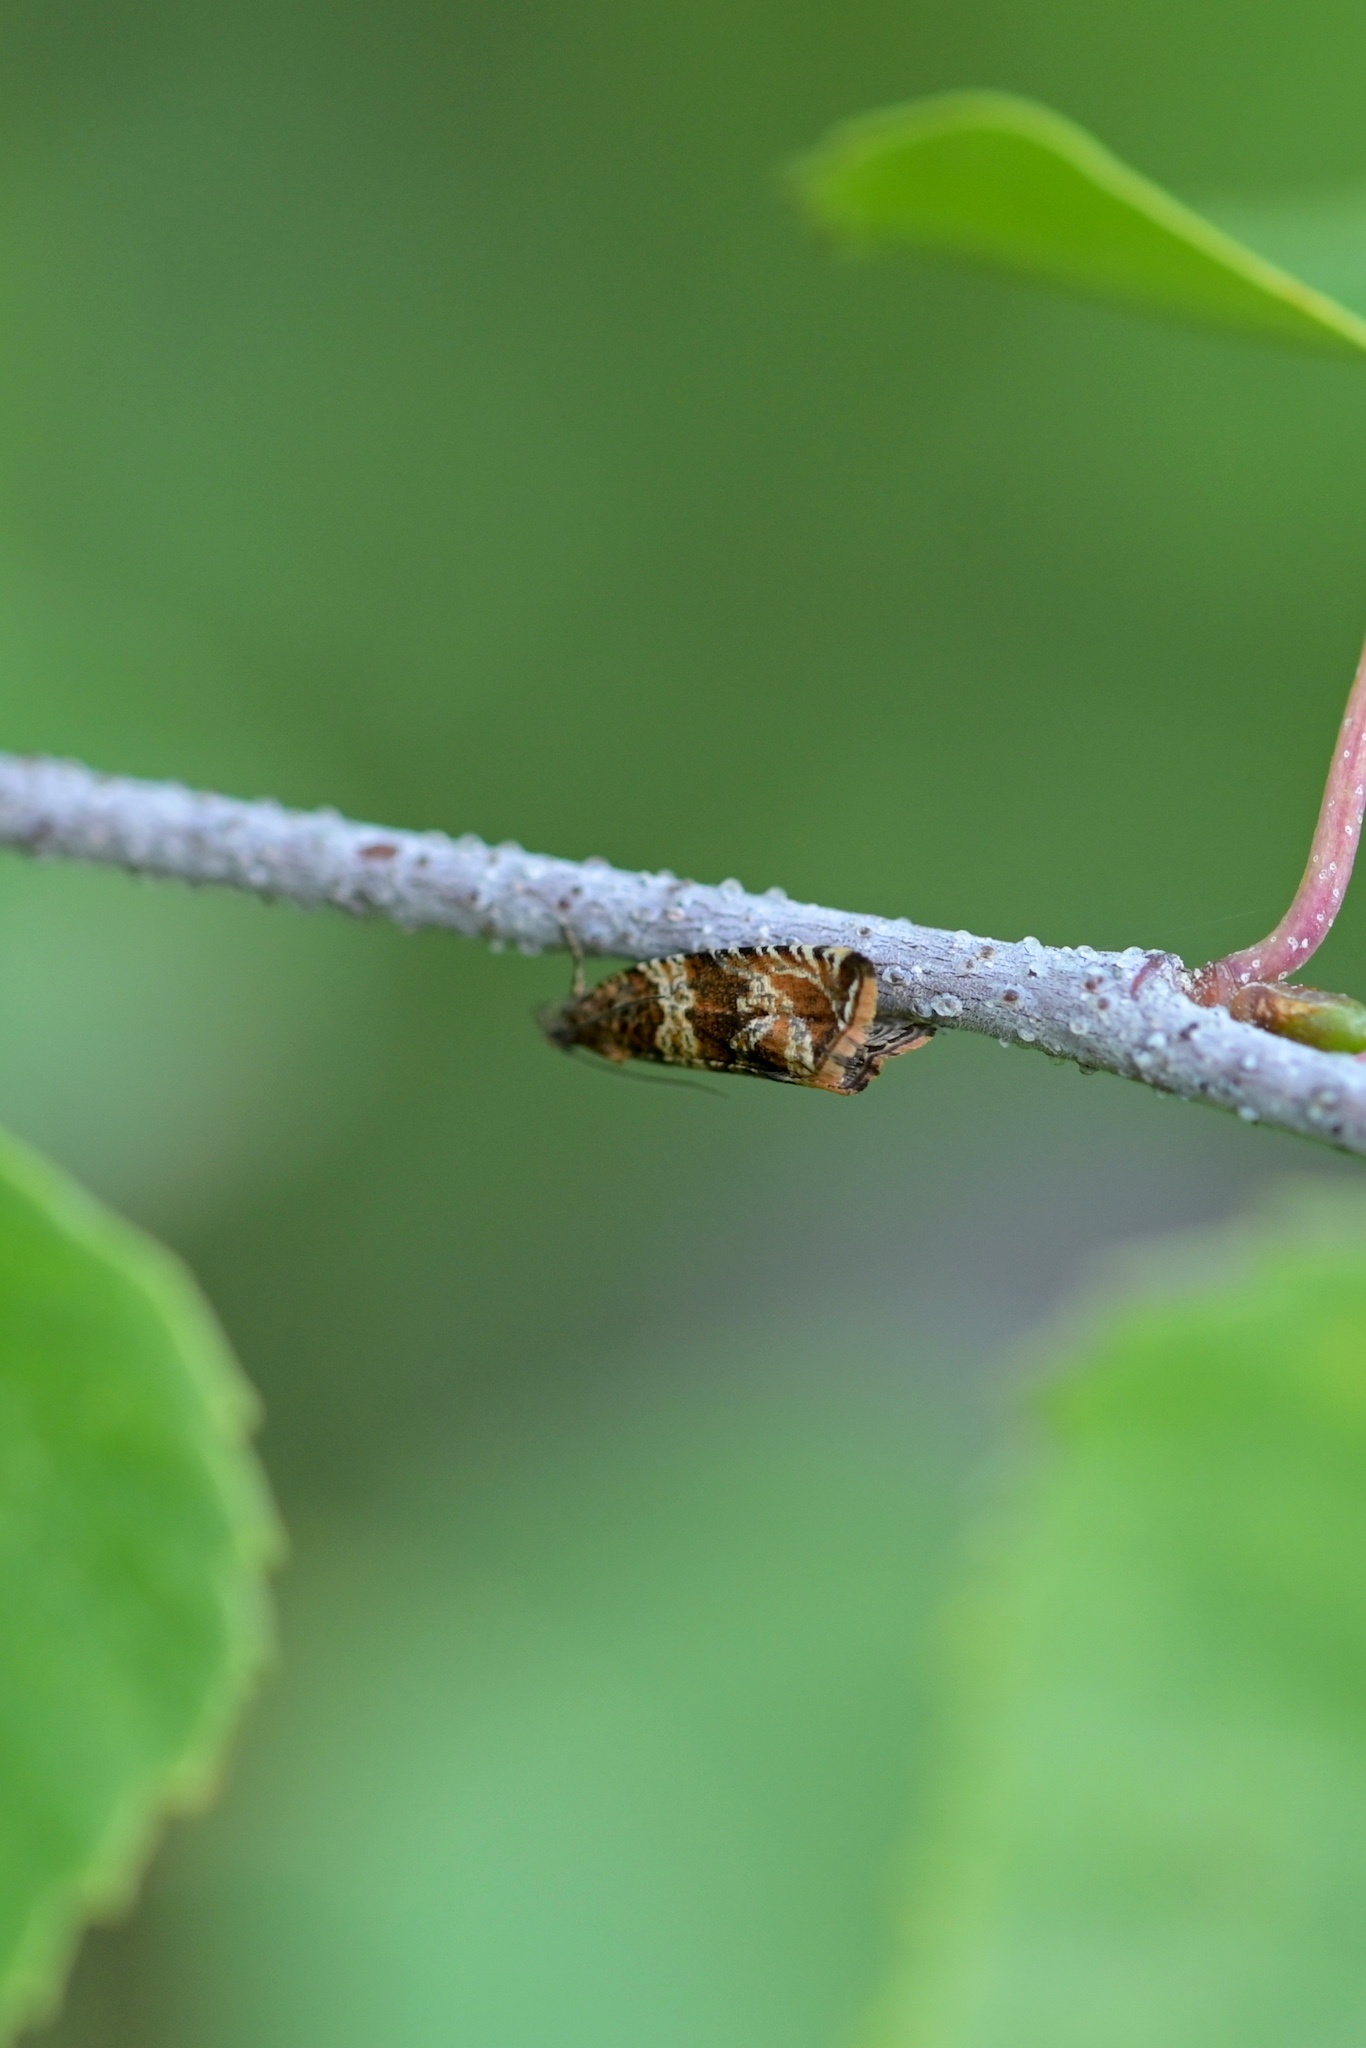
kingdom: Animalia
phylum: Arthropoda
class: Insecta
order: Lepidoptera
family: Tortricidae
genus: Olethreutes
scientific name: Olethreutes palustrana
